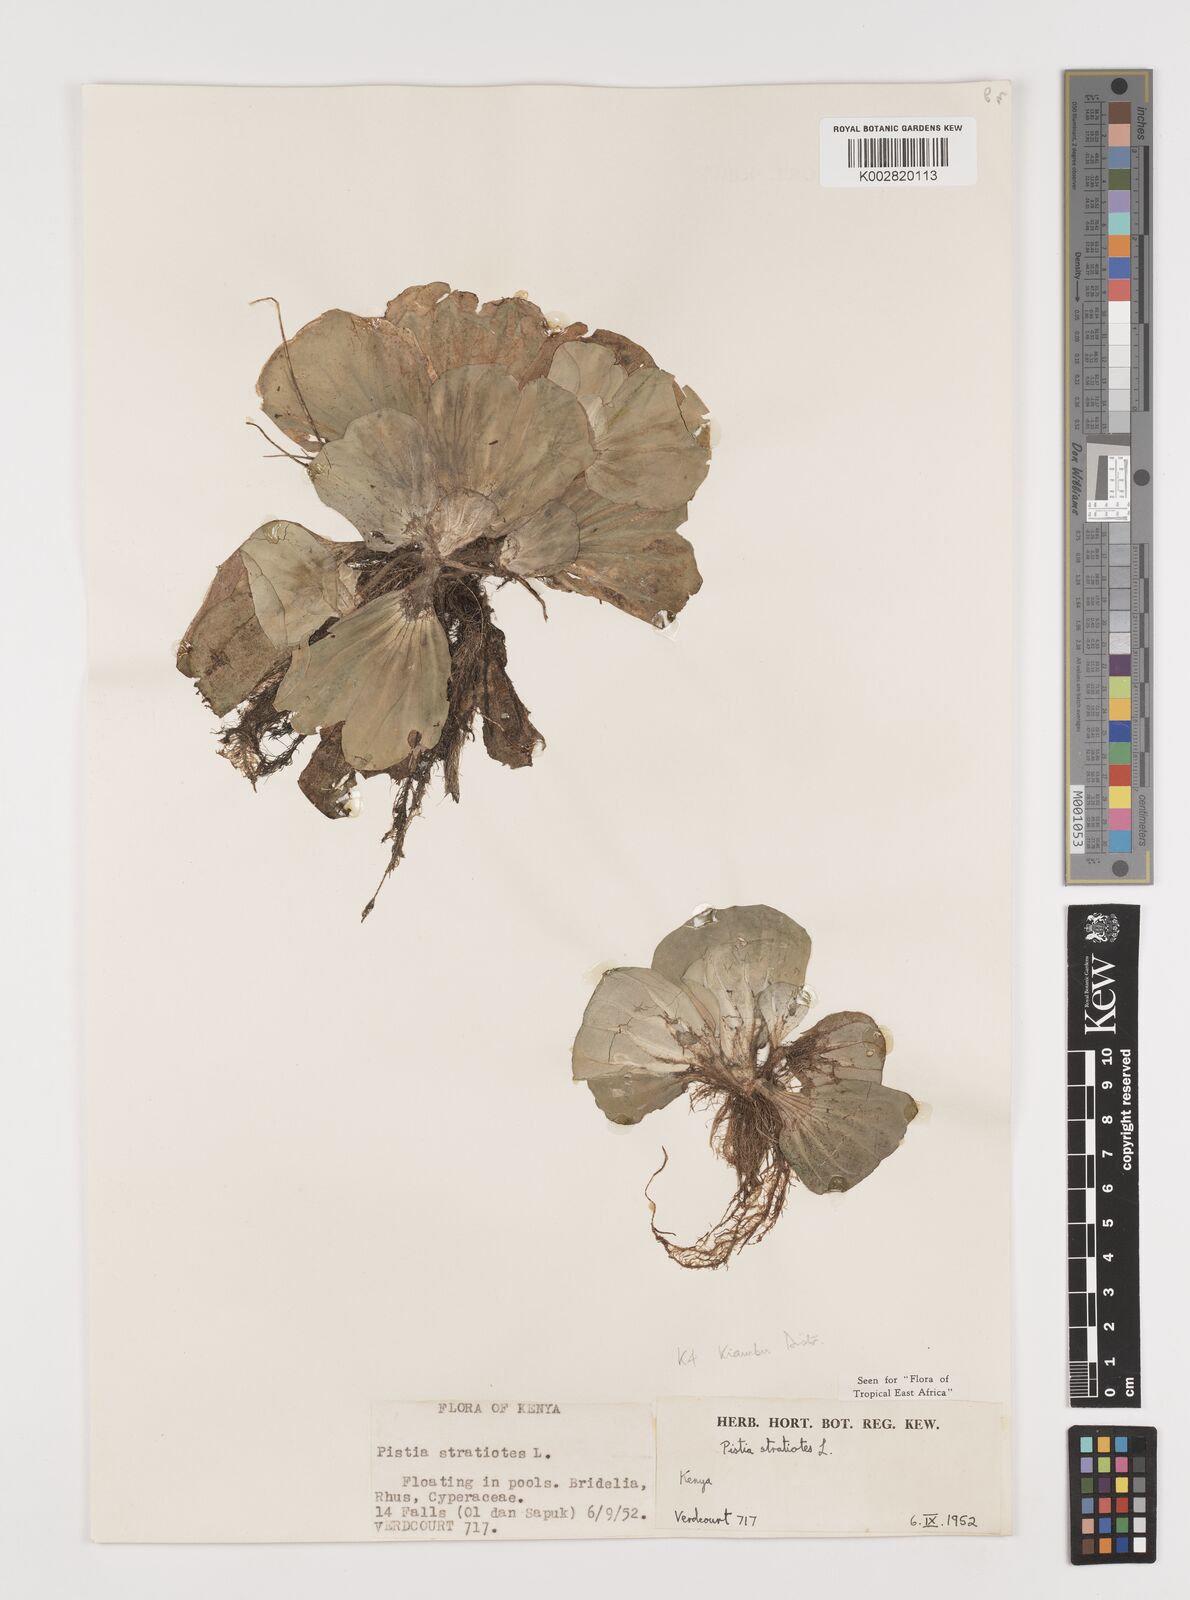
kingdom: Plantae
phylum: Tracheophyta
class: Liliopsida
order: Alismatales
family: Araceae
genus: Pistia
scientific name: Pistia stratiotes
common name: Water lettuce
